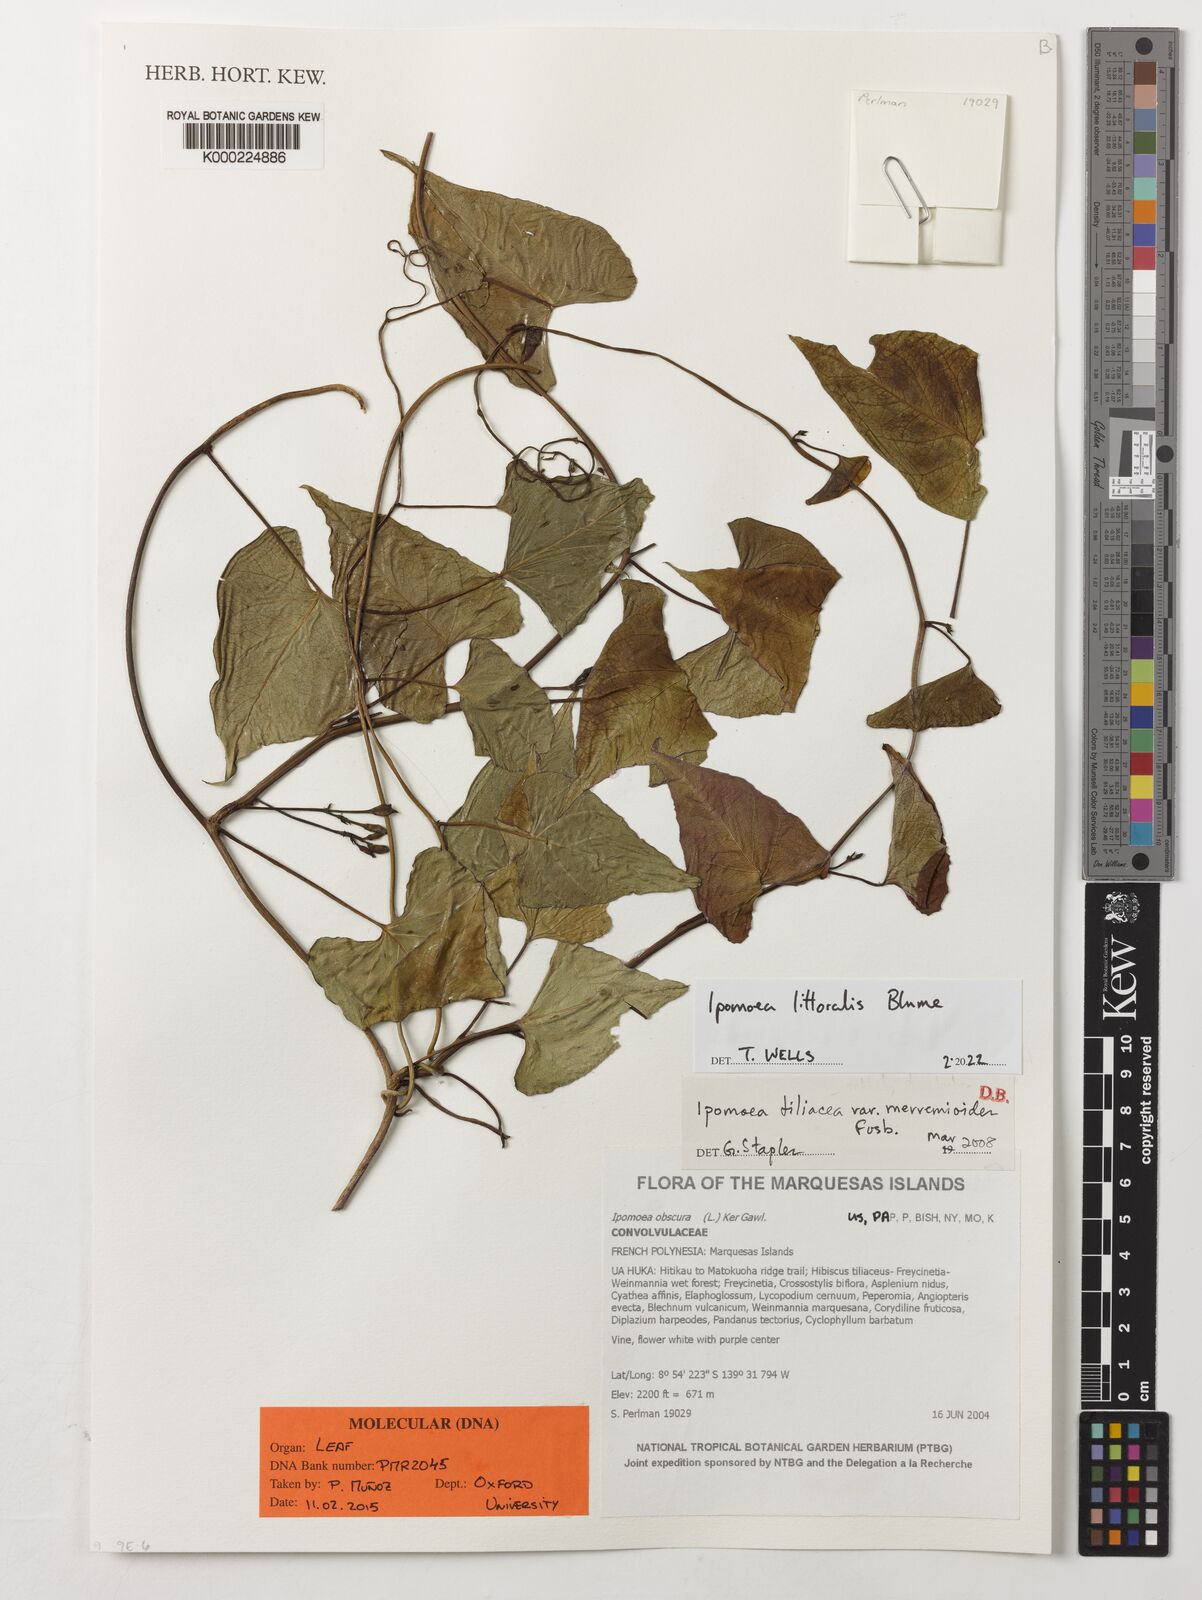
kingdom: Plantae
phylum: Tracheophyta
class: Magnoliopsida
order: Solanales
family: Convolvulaceae
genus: Ipomoea
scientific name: Ipomoea tiliacea
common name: Wild potato vine
